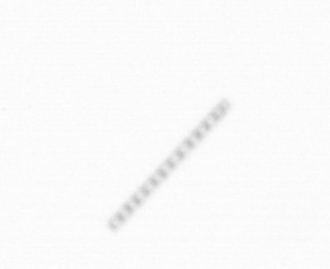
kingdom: Chromista
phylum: Ochrophyta
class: Bacillariophyceae
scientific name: Bacillariophyceae
